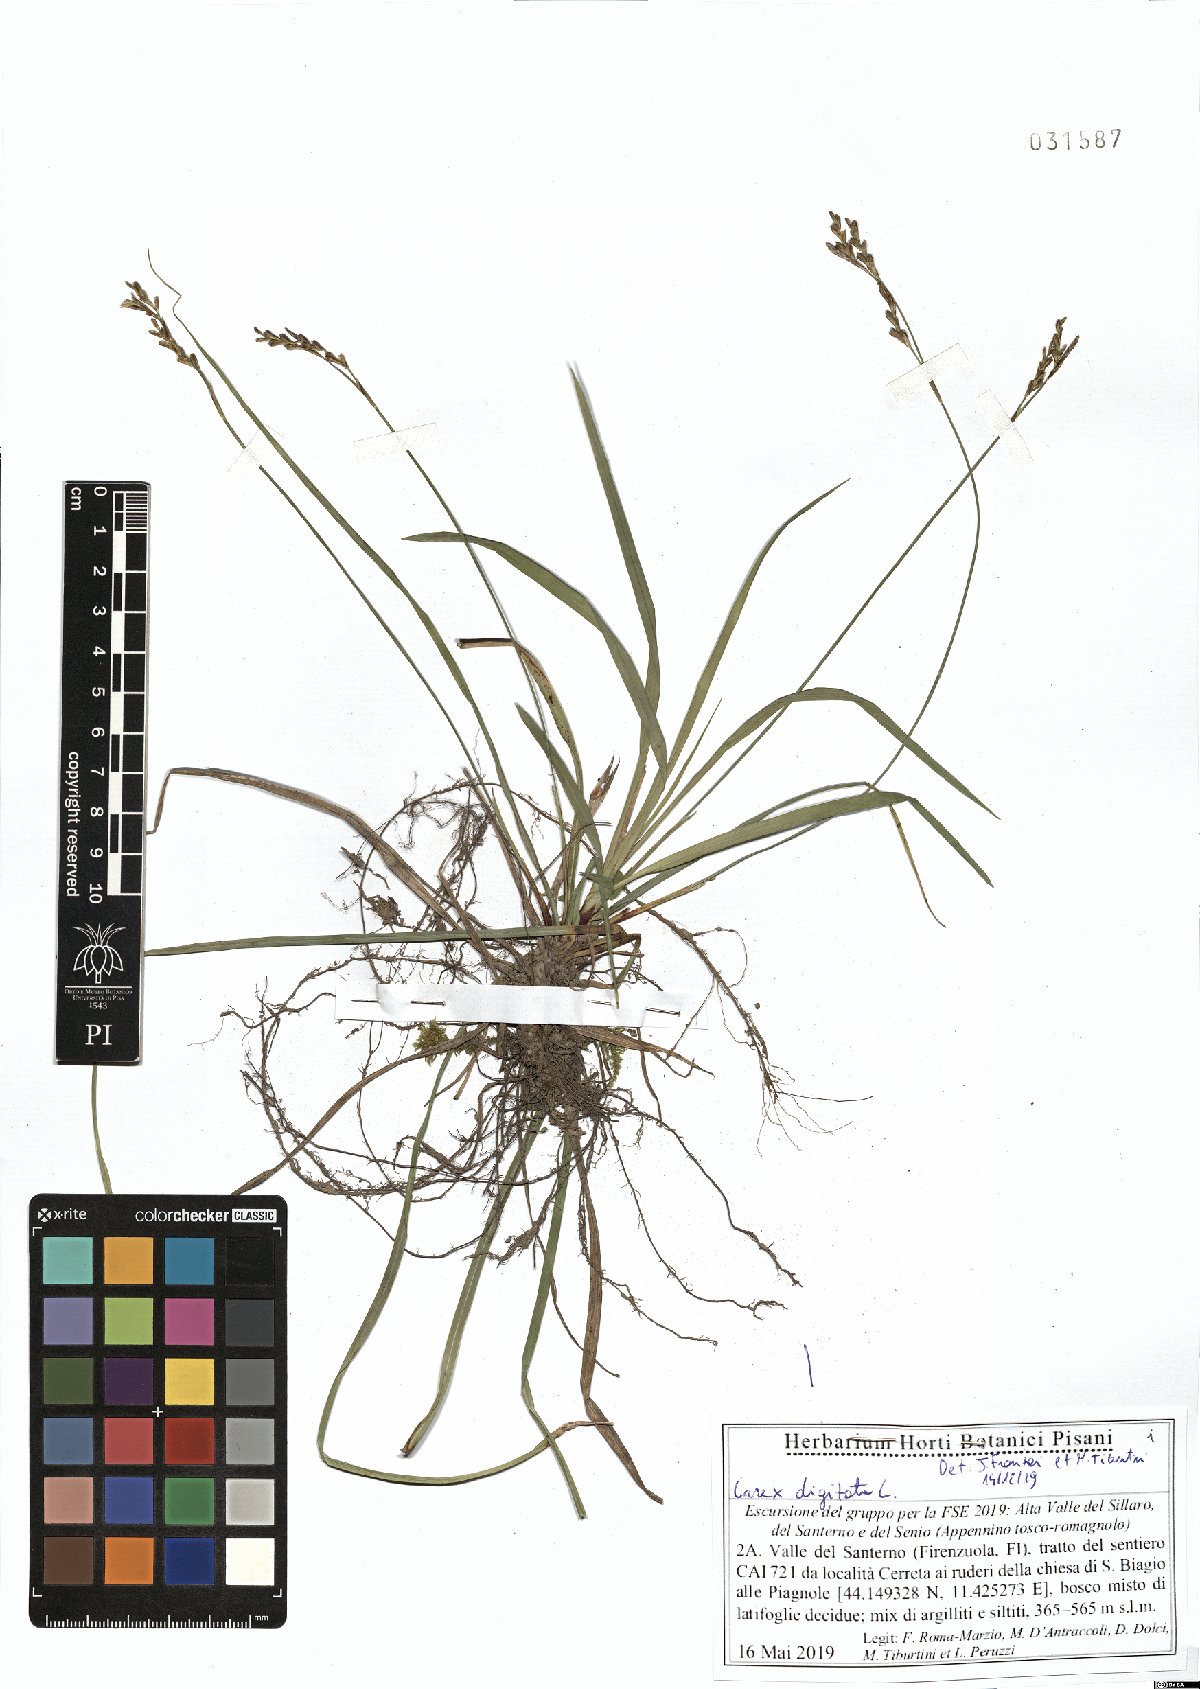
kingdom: Plantae
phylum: Tracheophyta
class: Liliopsida
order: Poales
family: Cyperaceae
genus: Carex
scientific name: Carex digitata
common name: Fingered sedge
